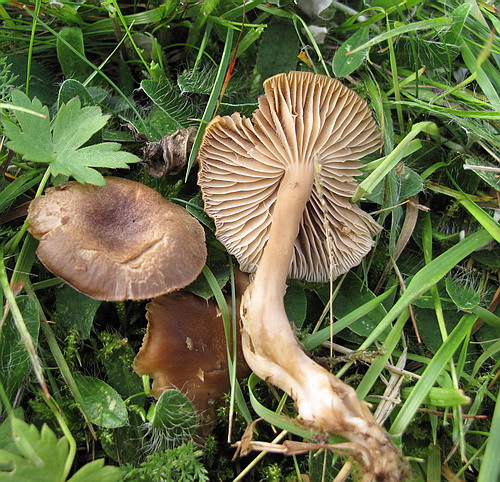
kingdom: Fungi
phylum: Basidiomycota
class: Agaricomycetes
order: Agaricales
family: Clavariaceae
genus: Camarophyllopsis
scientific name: Camarophyllopsis schulzeri
